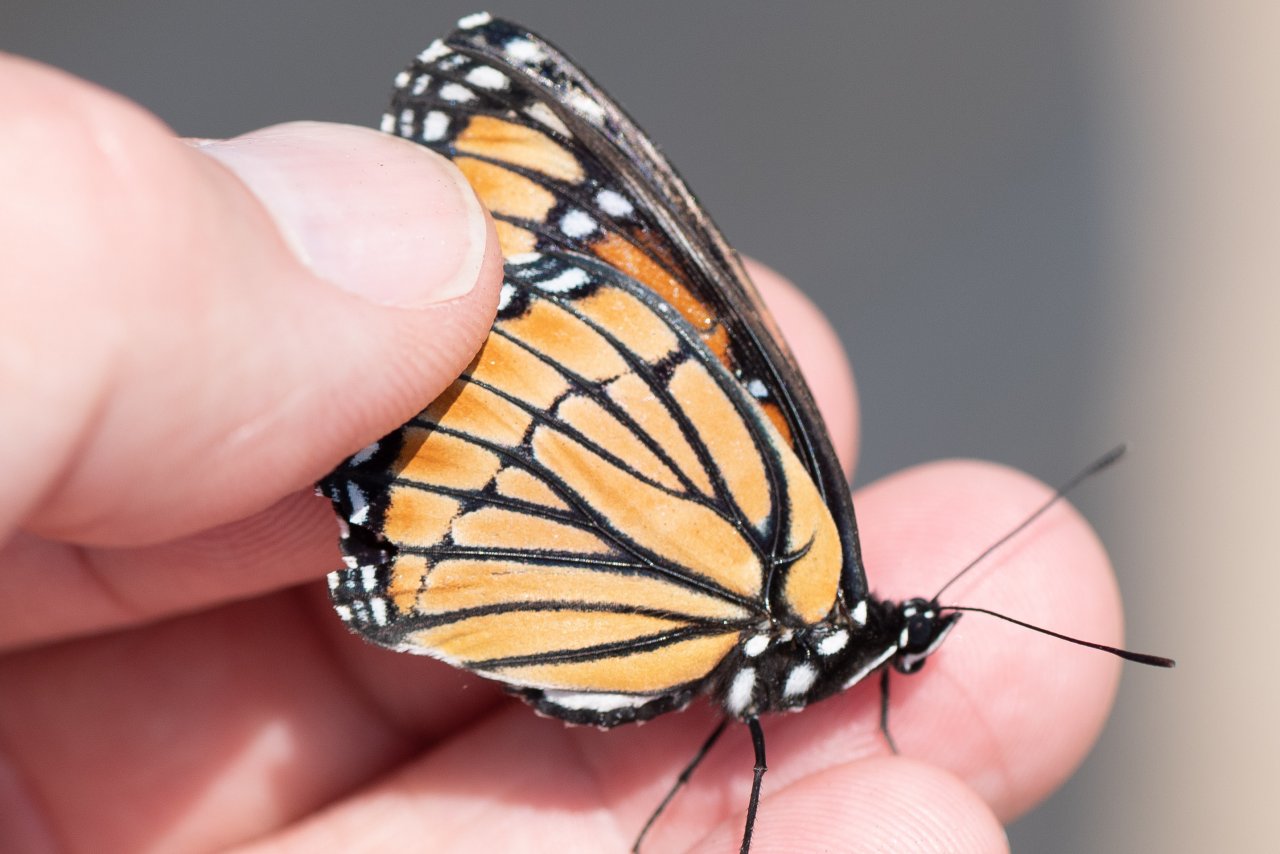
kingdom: Animalia
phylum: Arthropoda
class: Insecta
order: Lepidoptera
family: Nymphalidae
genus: Limenitis
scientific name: Limenitis archippus
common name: Viceroy
